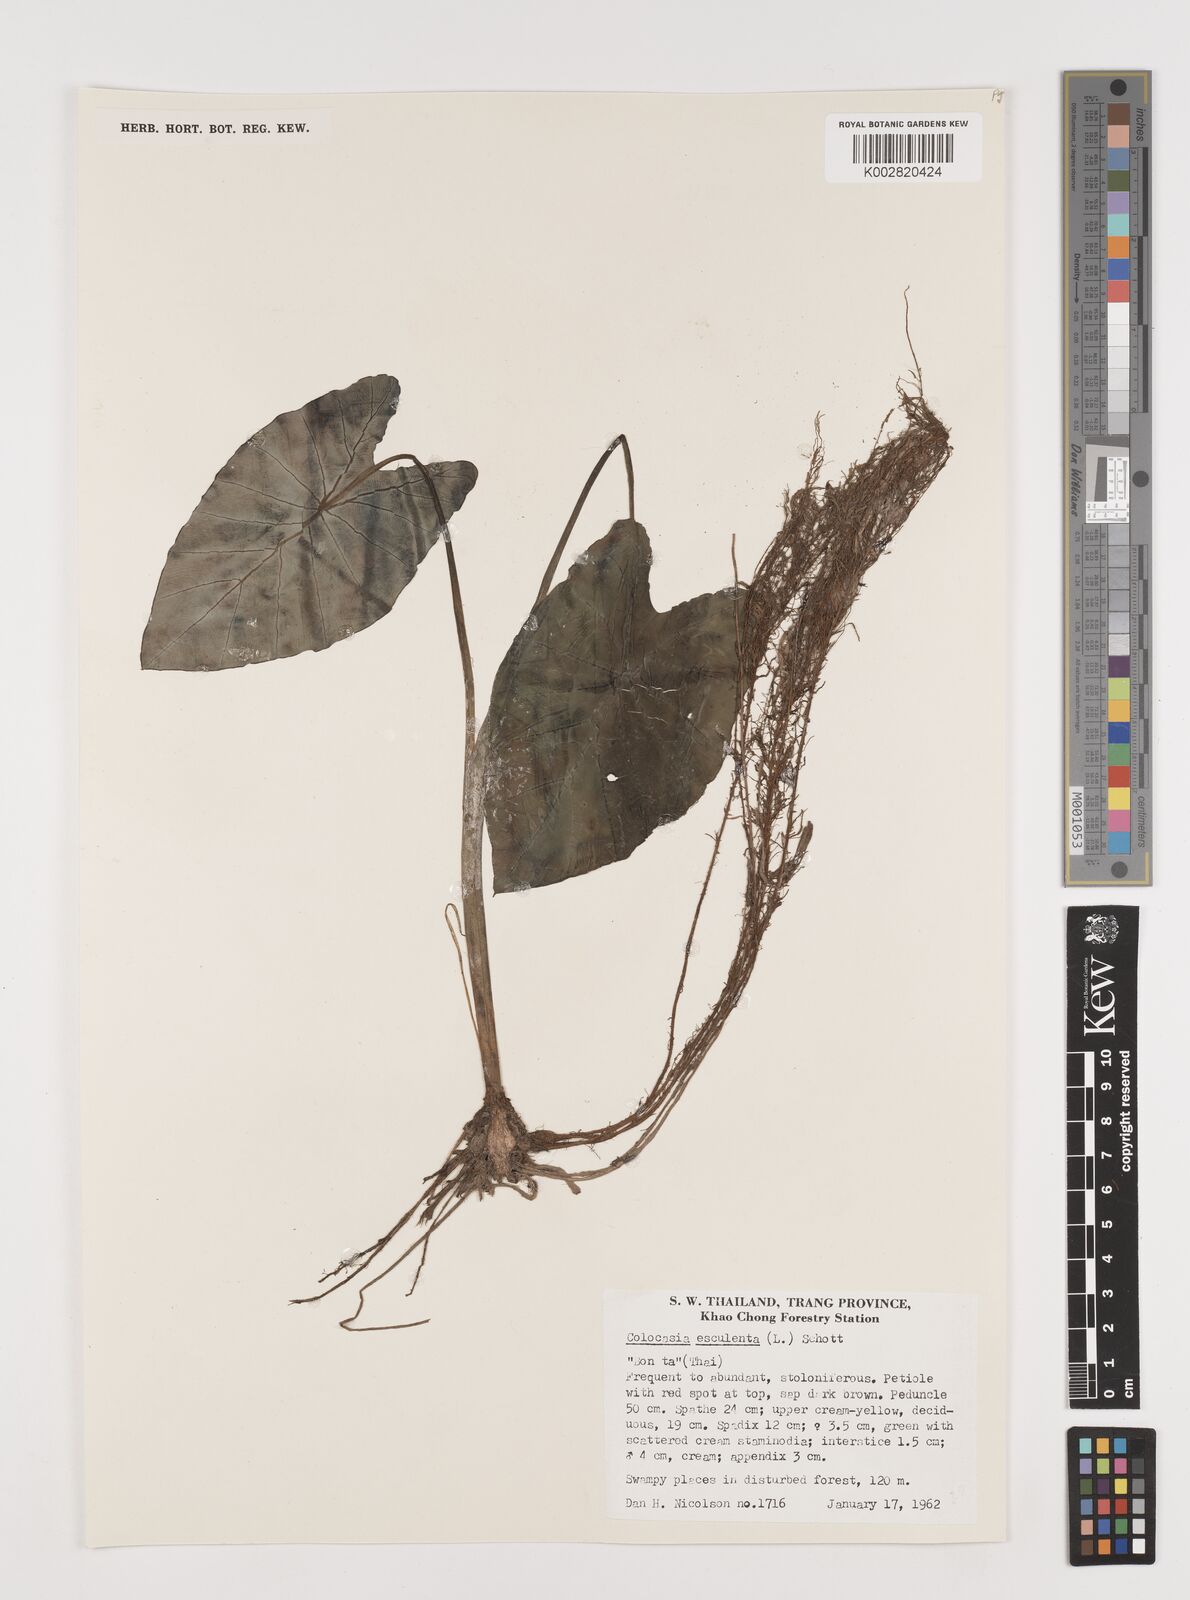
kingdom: Plantae
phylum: Tracheophyta
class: Liliopsida
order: Alismatales
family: Araceae
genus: Colocasia
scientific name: Colocasia esculenta
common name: Taro
